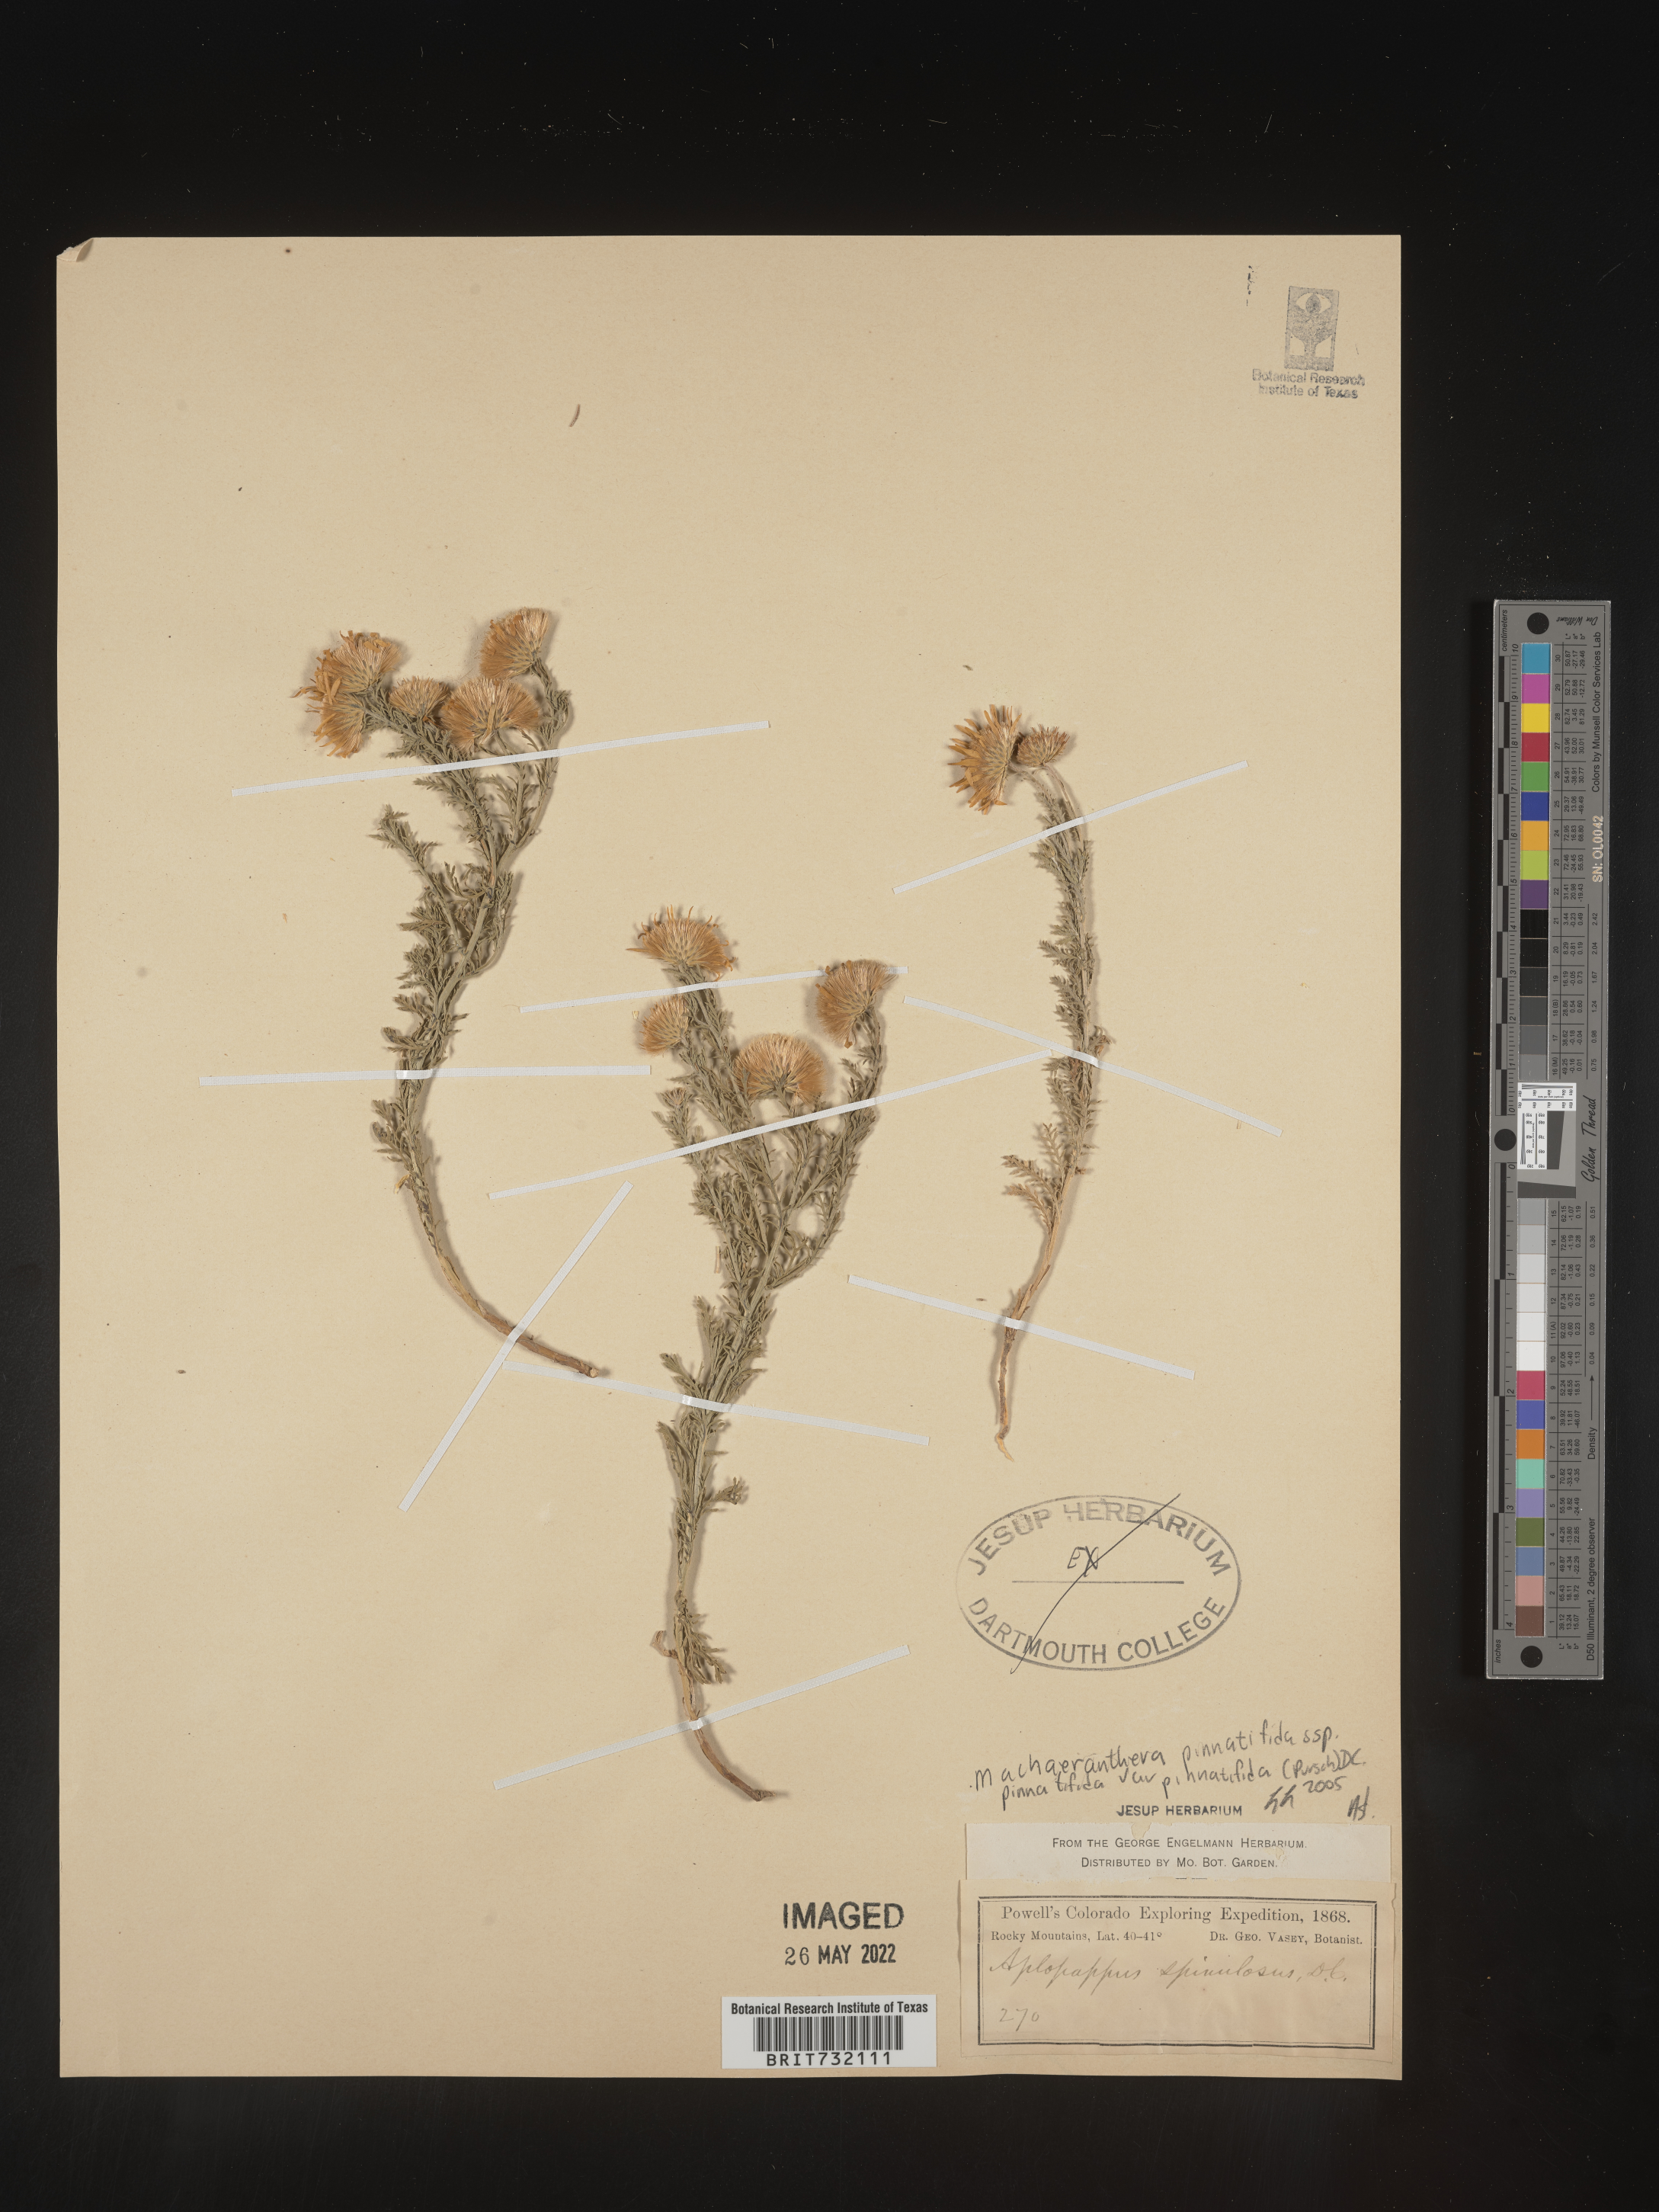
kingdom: Plantae
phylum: Tracheophyta
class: Magnoliopsida
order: Asterales
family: Asteraceae
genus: Xanthisma
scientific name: Xanthisma spinulosum
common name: Spiny goldenweed
